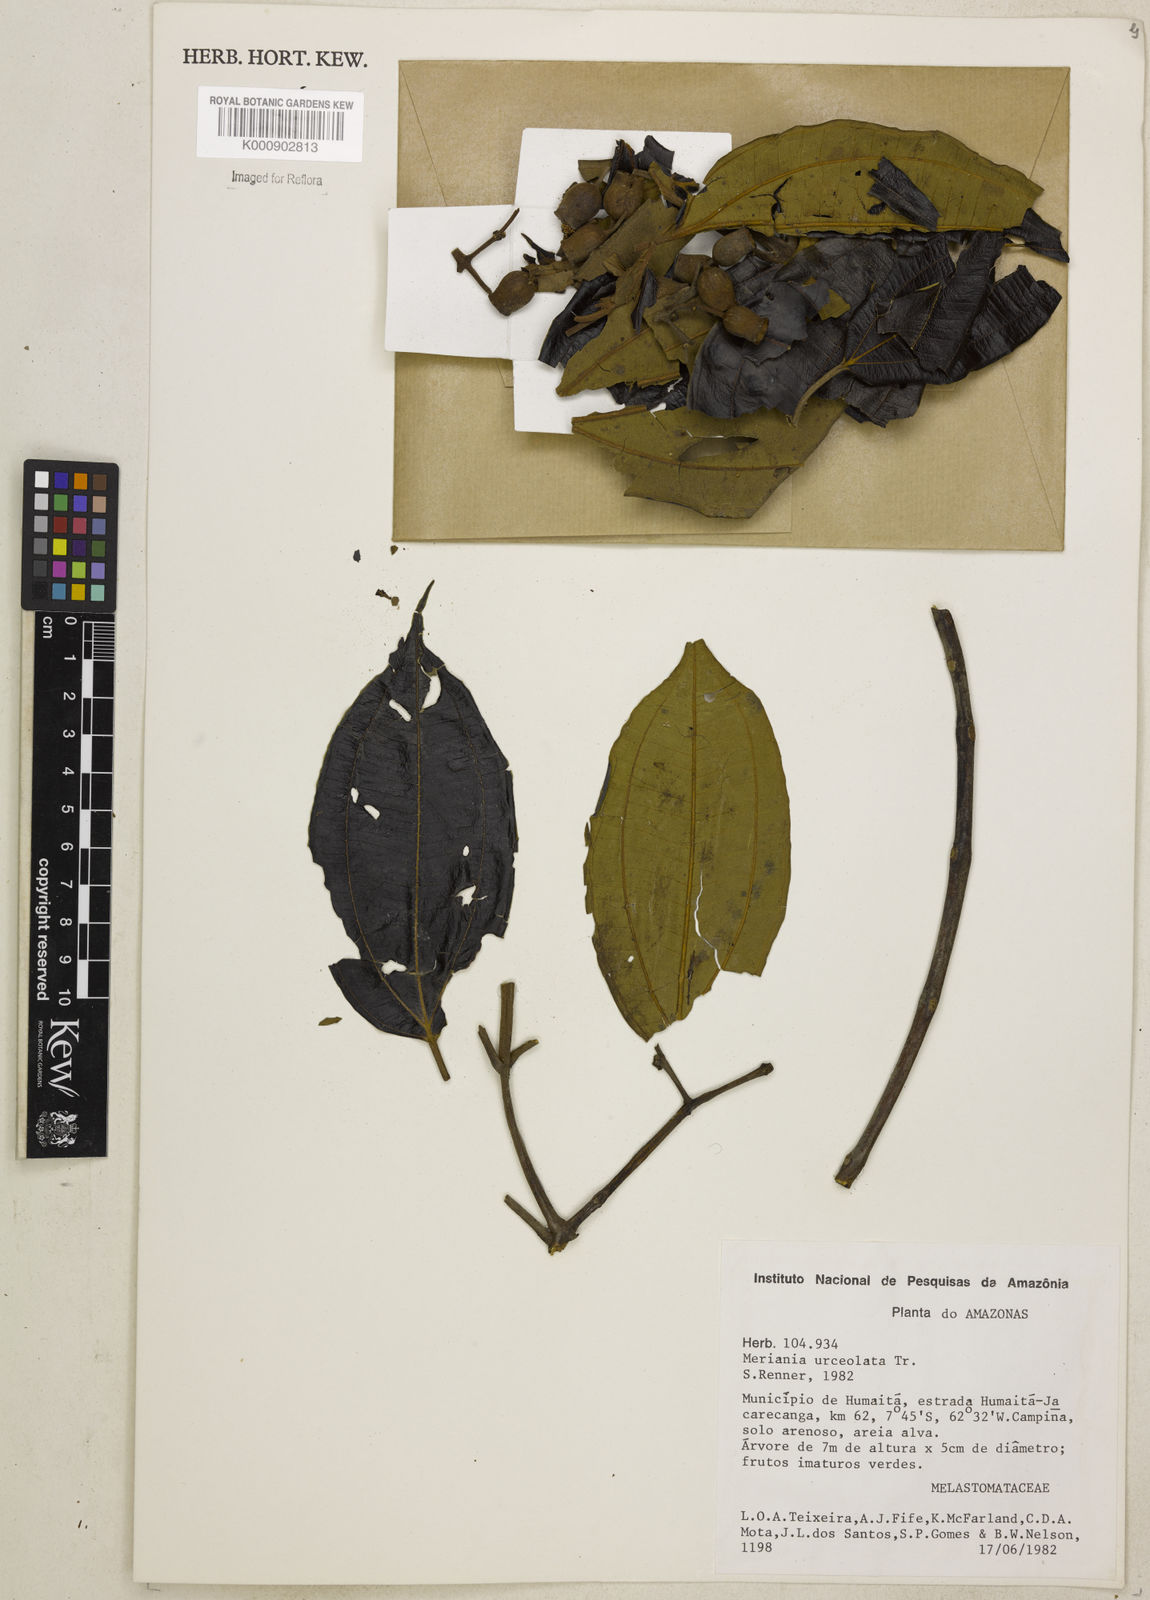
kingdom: Plantae
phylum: Tracheophyta
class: Magnoliopsida
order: Myrtales
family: Melastomataceae
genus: Meriania
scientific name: Meriania urceolata
